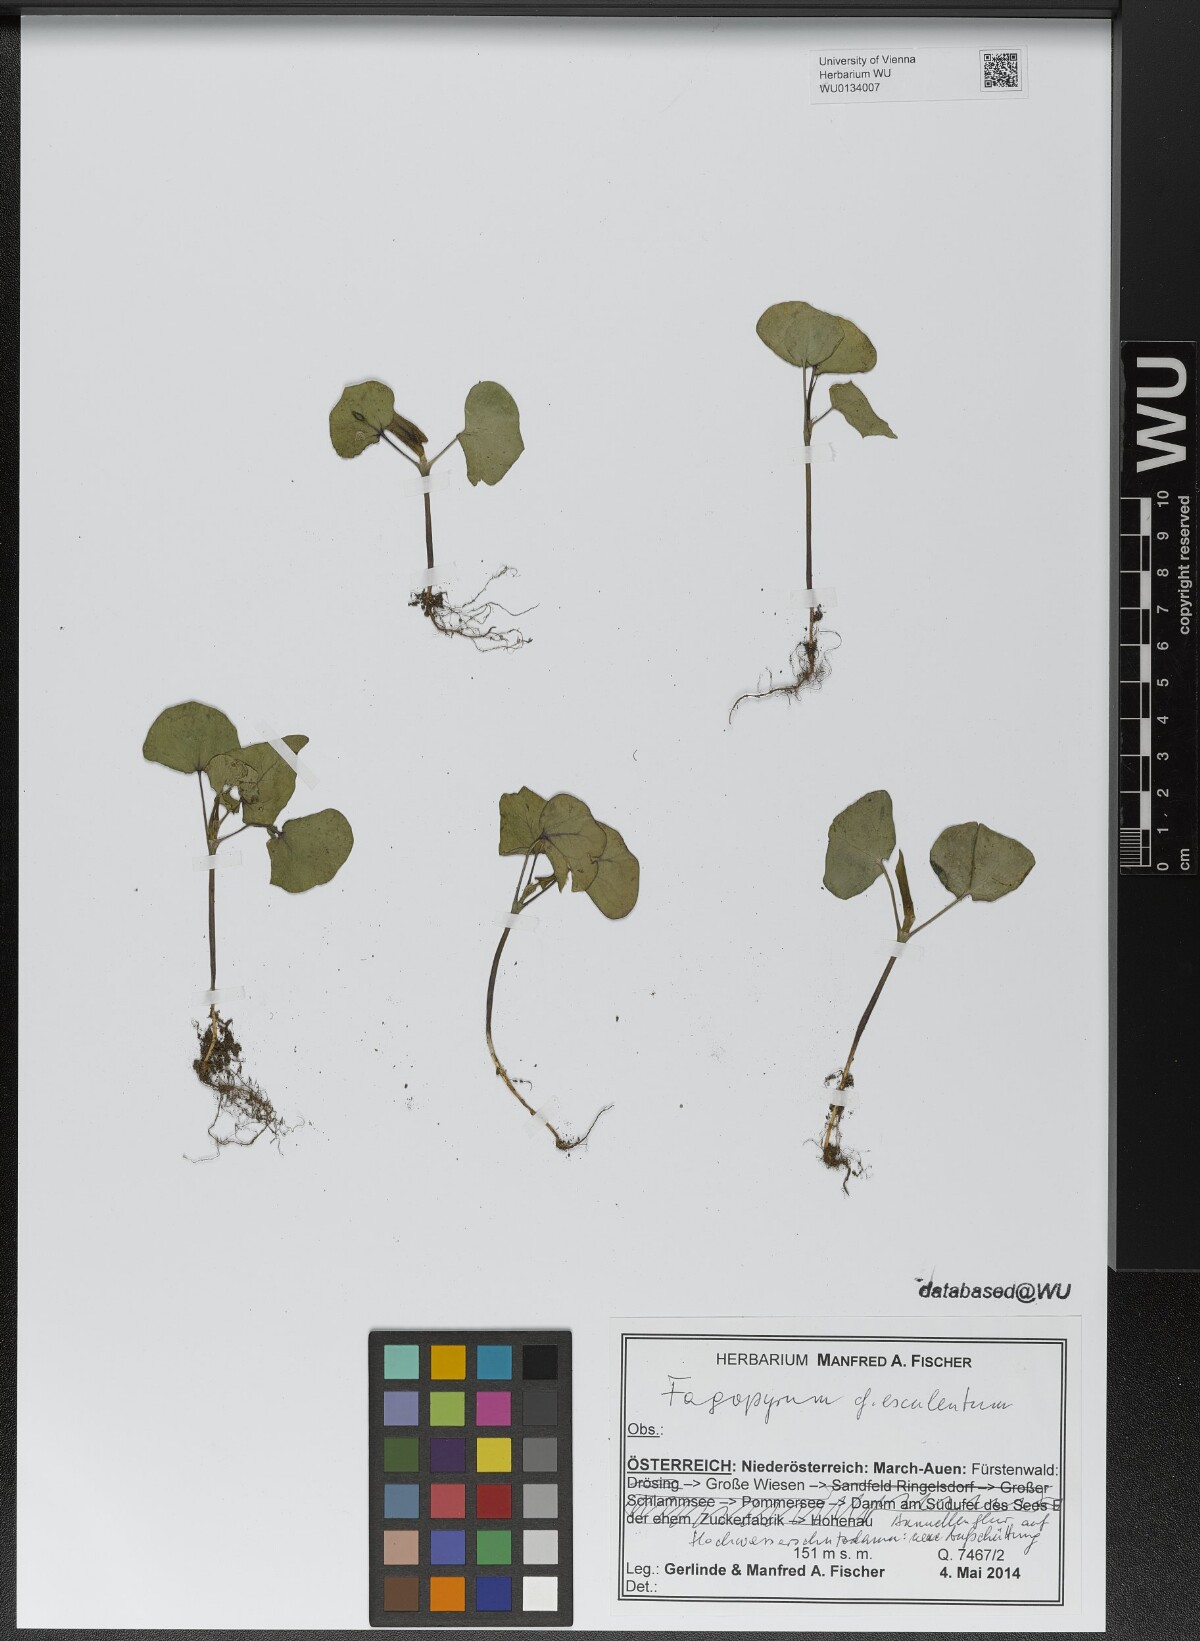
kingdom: Plantae
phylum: Tracheophyta
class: Magnoliopsida
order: Caryophyllales
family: Polygonaceae
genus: Fagopyrum
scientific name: Fagopyrum esculentum
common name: Buckwheat
